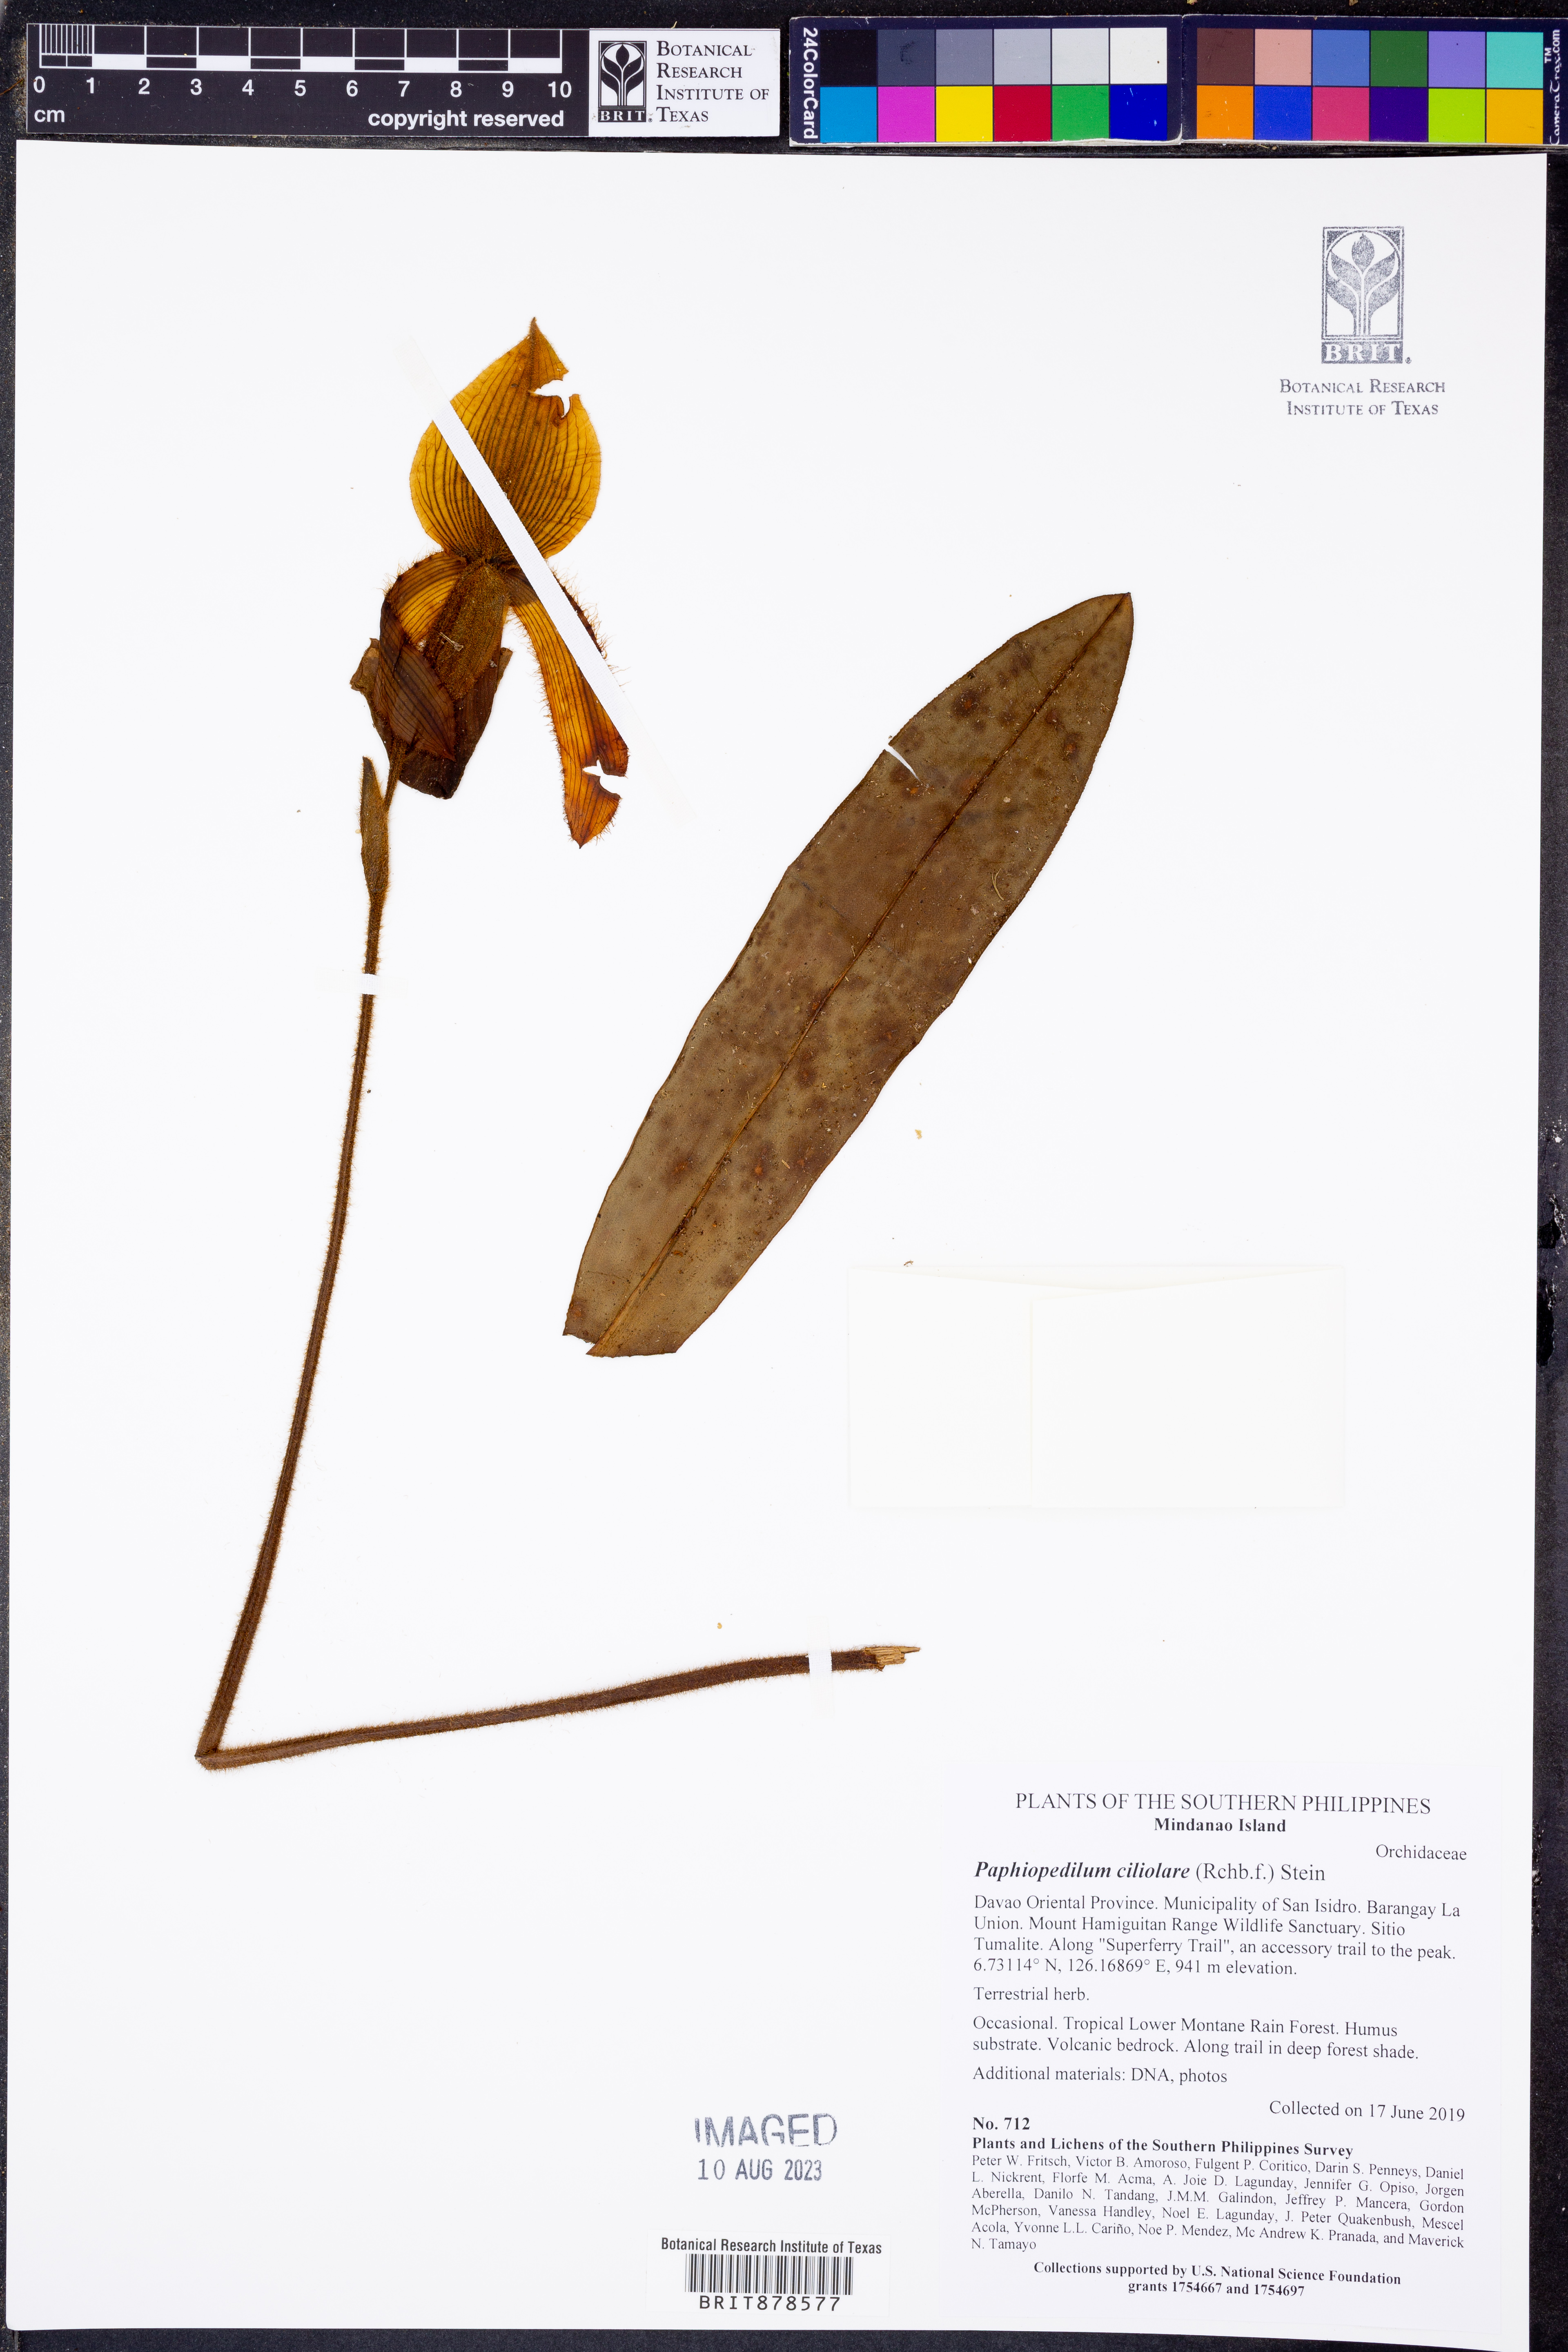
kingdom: Plantae
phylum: Tracheophyta
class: Liliopsida
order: Asparagales
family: Orchidaceae
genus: Paphiopedilum
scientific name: Paphiopedilum ciliolare
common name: Short haired paphiopedilum
